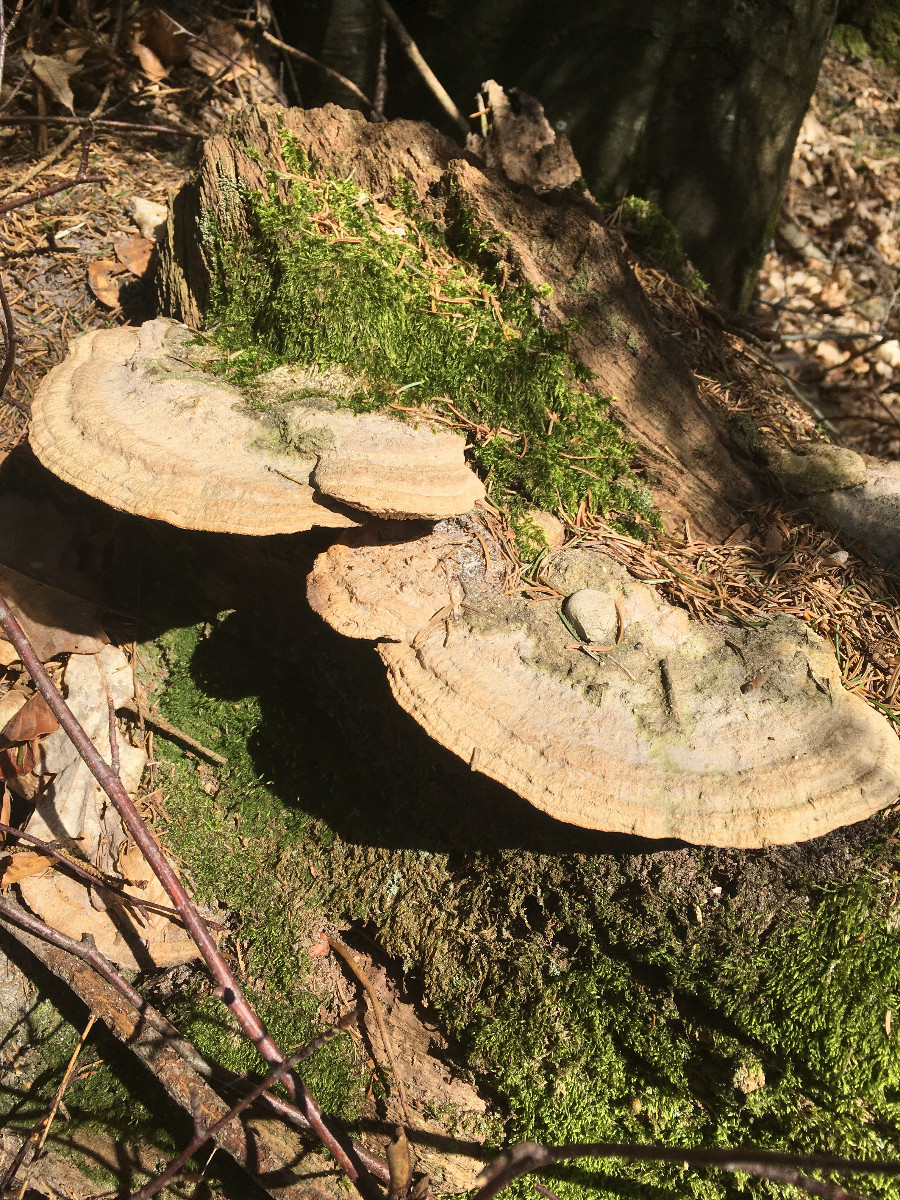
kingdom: Fungi
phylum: Basidiomycota
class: Agaricomycetes
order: Polyporales
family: Fomitopsidaceae
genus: Daedalea
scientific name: Daedalea quercina
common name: ege-labyrintsvamp
